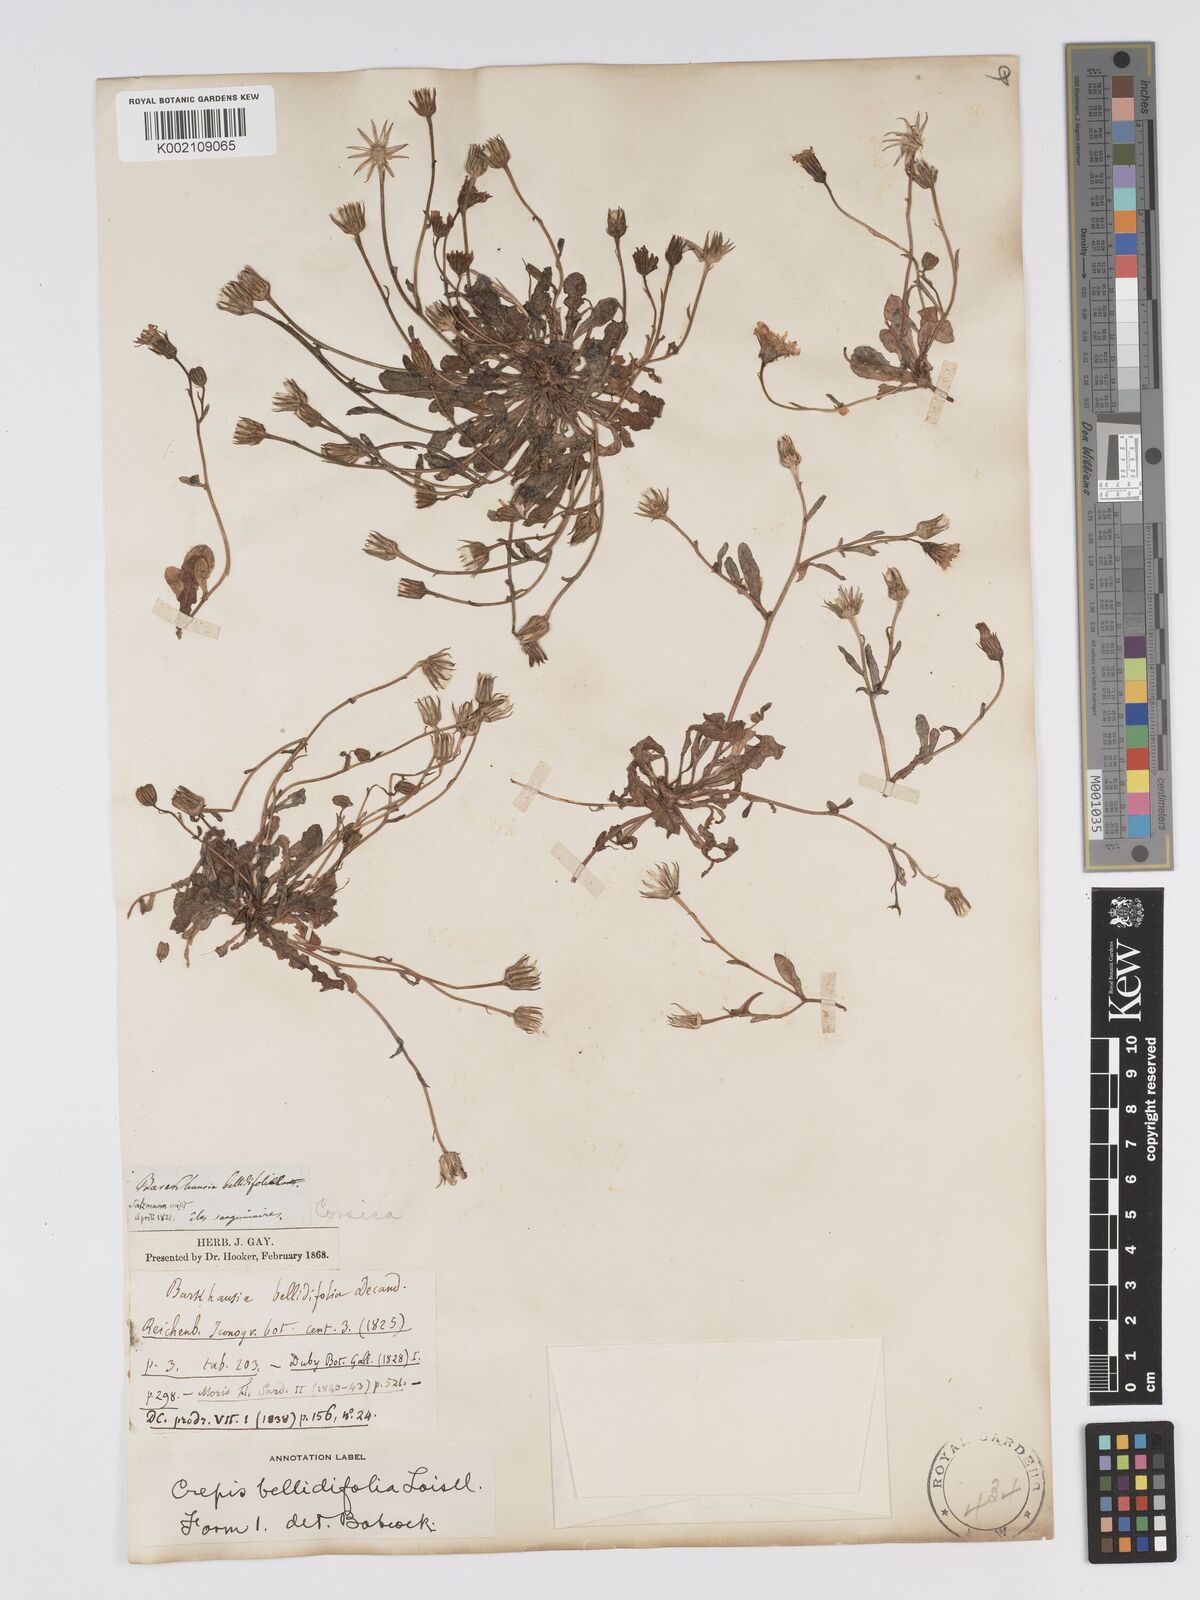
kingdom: Plantae
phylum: Tracheophyta
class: Magnoliopsida
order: Asterales
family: Asteraceae
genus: Crepis
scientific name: Crepis bellidifolia
